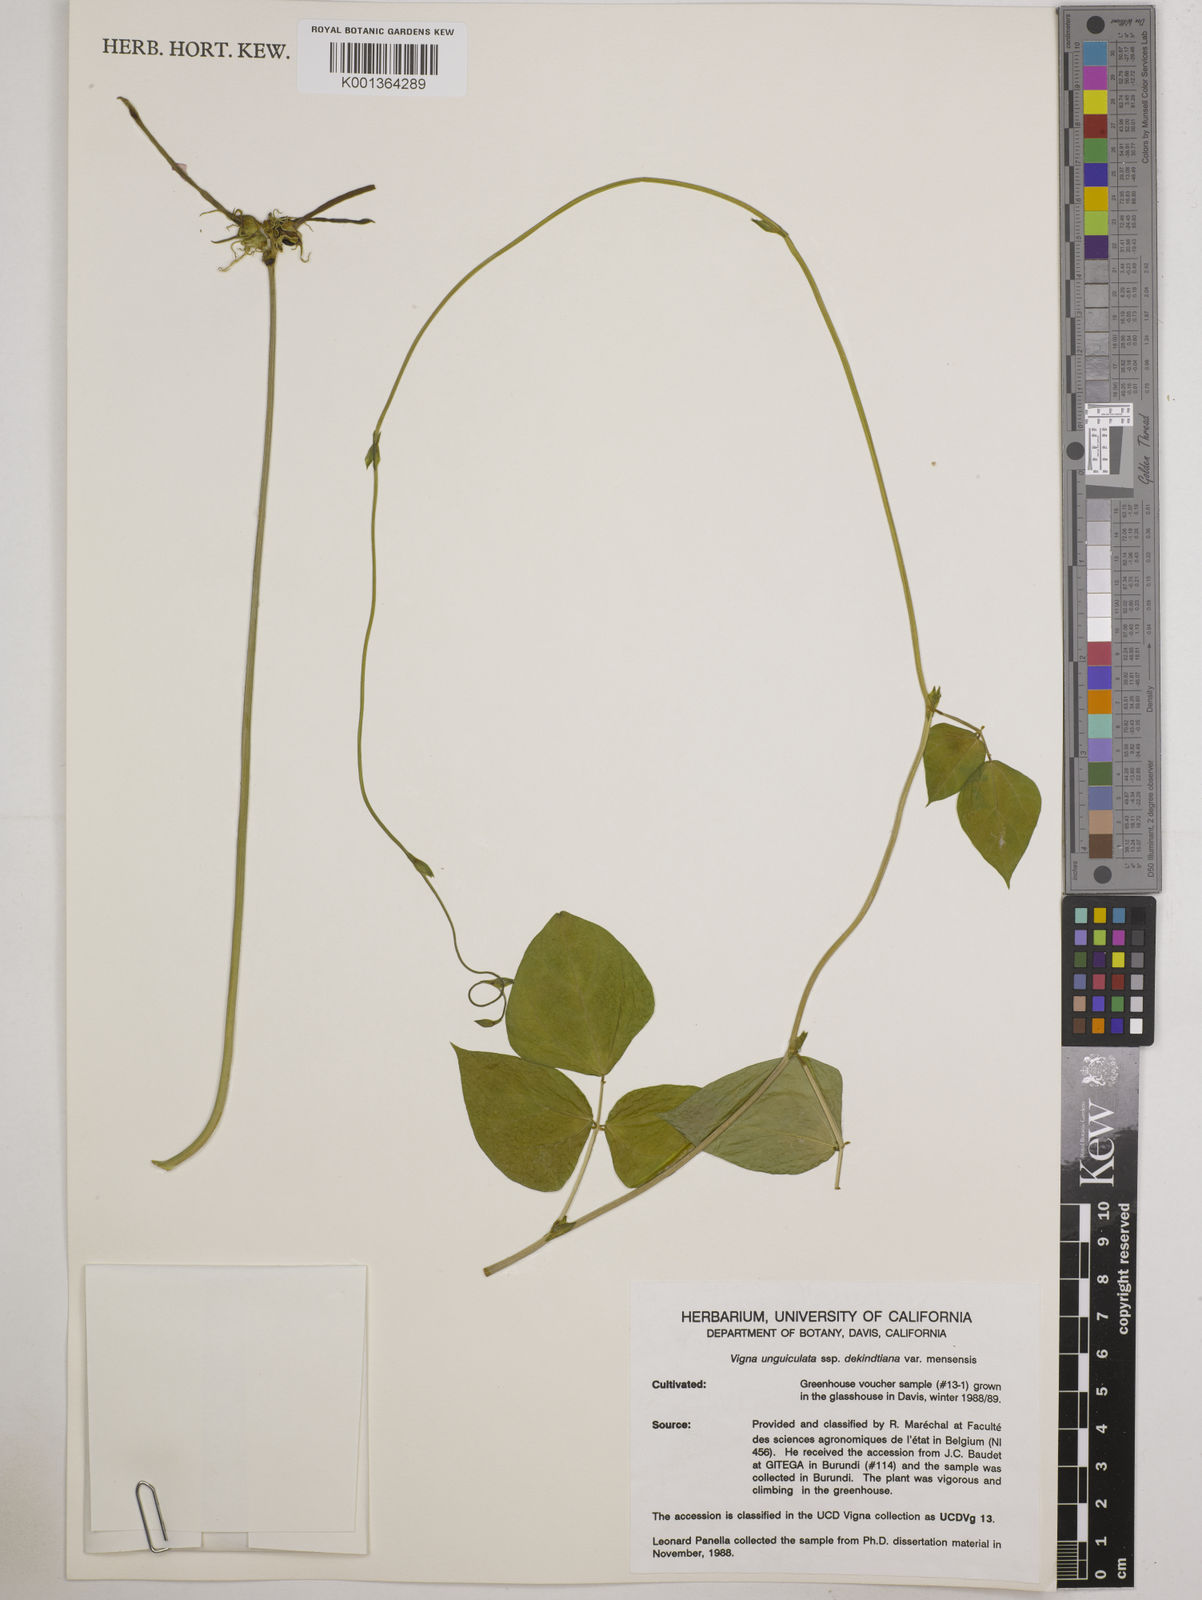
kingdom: Plantae
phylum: Tracheophyta
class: Magnoliopsida
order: Fabales
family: Fabaceae
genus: Vigna
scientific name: Vigna
